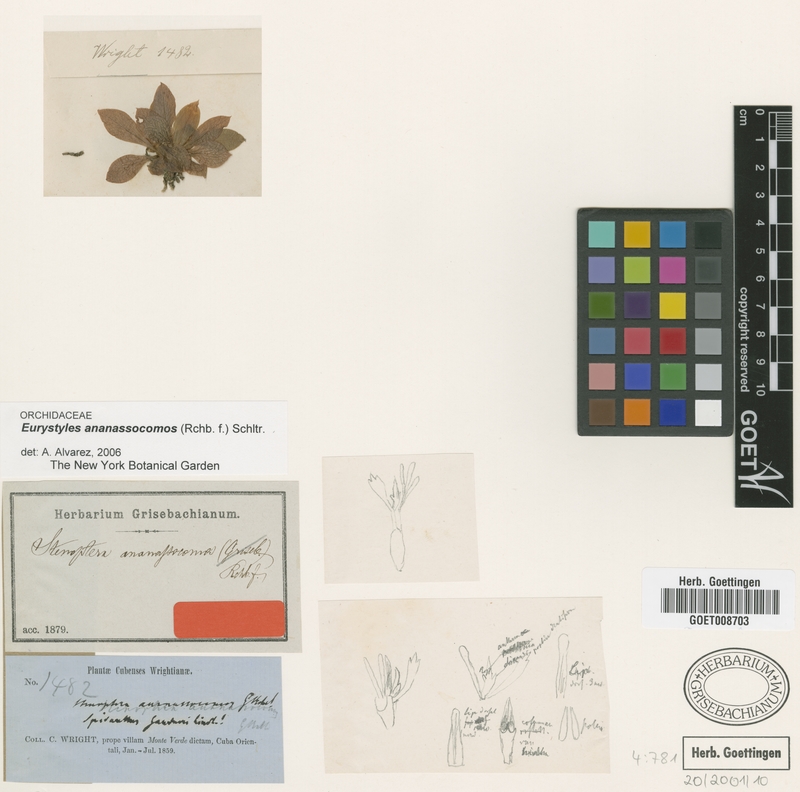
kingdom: Plantae
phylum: Tracheophyta
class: Liliopsida
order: Asparagales
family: Orchidaceae
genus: Eurystyles
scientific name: Eurystyles ananassocomos
